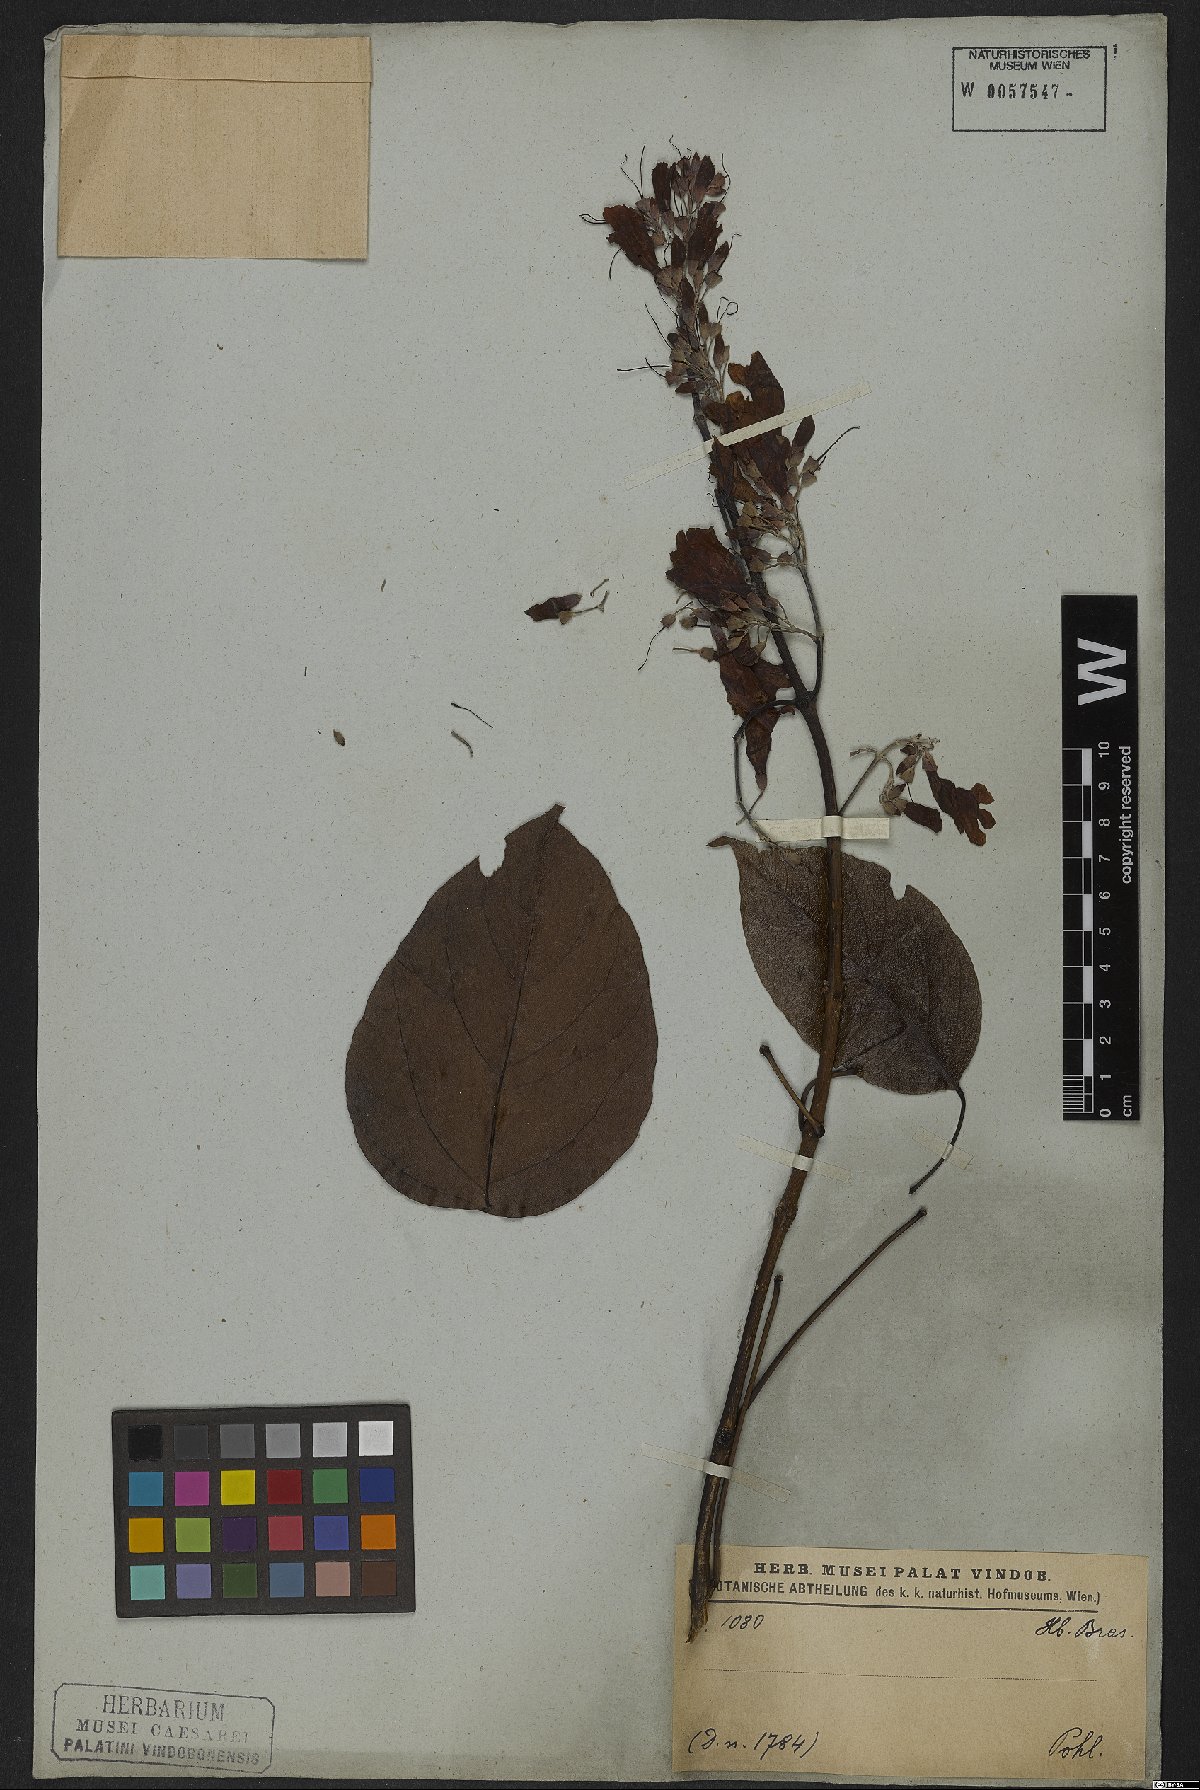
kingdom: Plantae
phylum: Tracheophyta
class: Magnoliopsida
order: Rosales
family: Rhamnaceae
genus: Arrabidaea
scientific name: Arrabidaea
